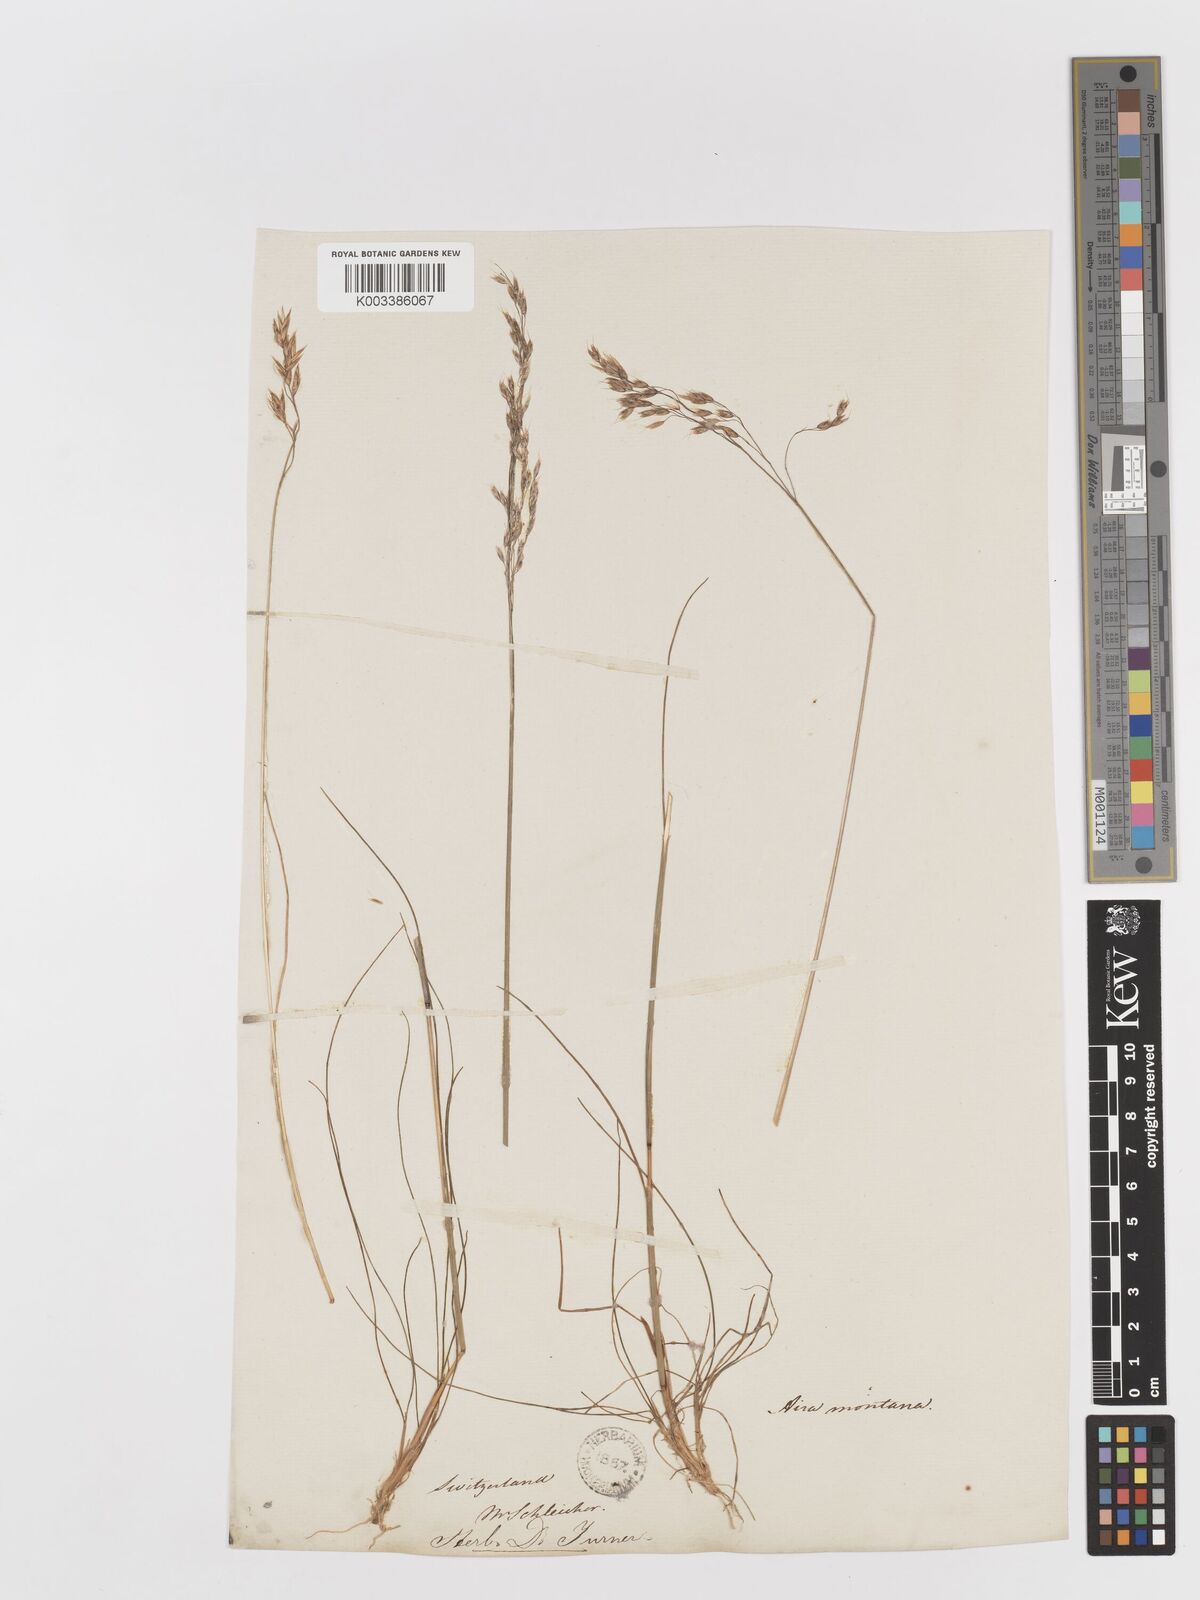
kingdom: Plantae
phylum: Tracheophyta
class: Liliopsida
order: Poales
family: Poaceae
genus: Avenella
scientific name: Avenella flexuosa
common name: Wavy hairgrass
